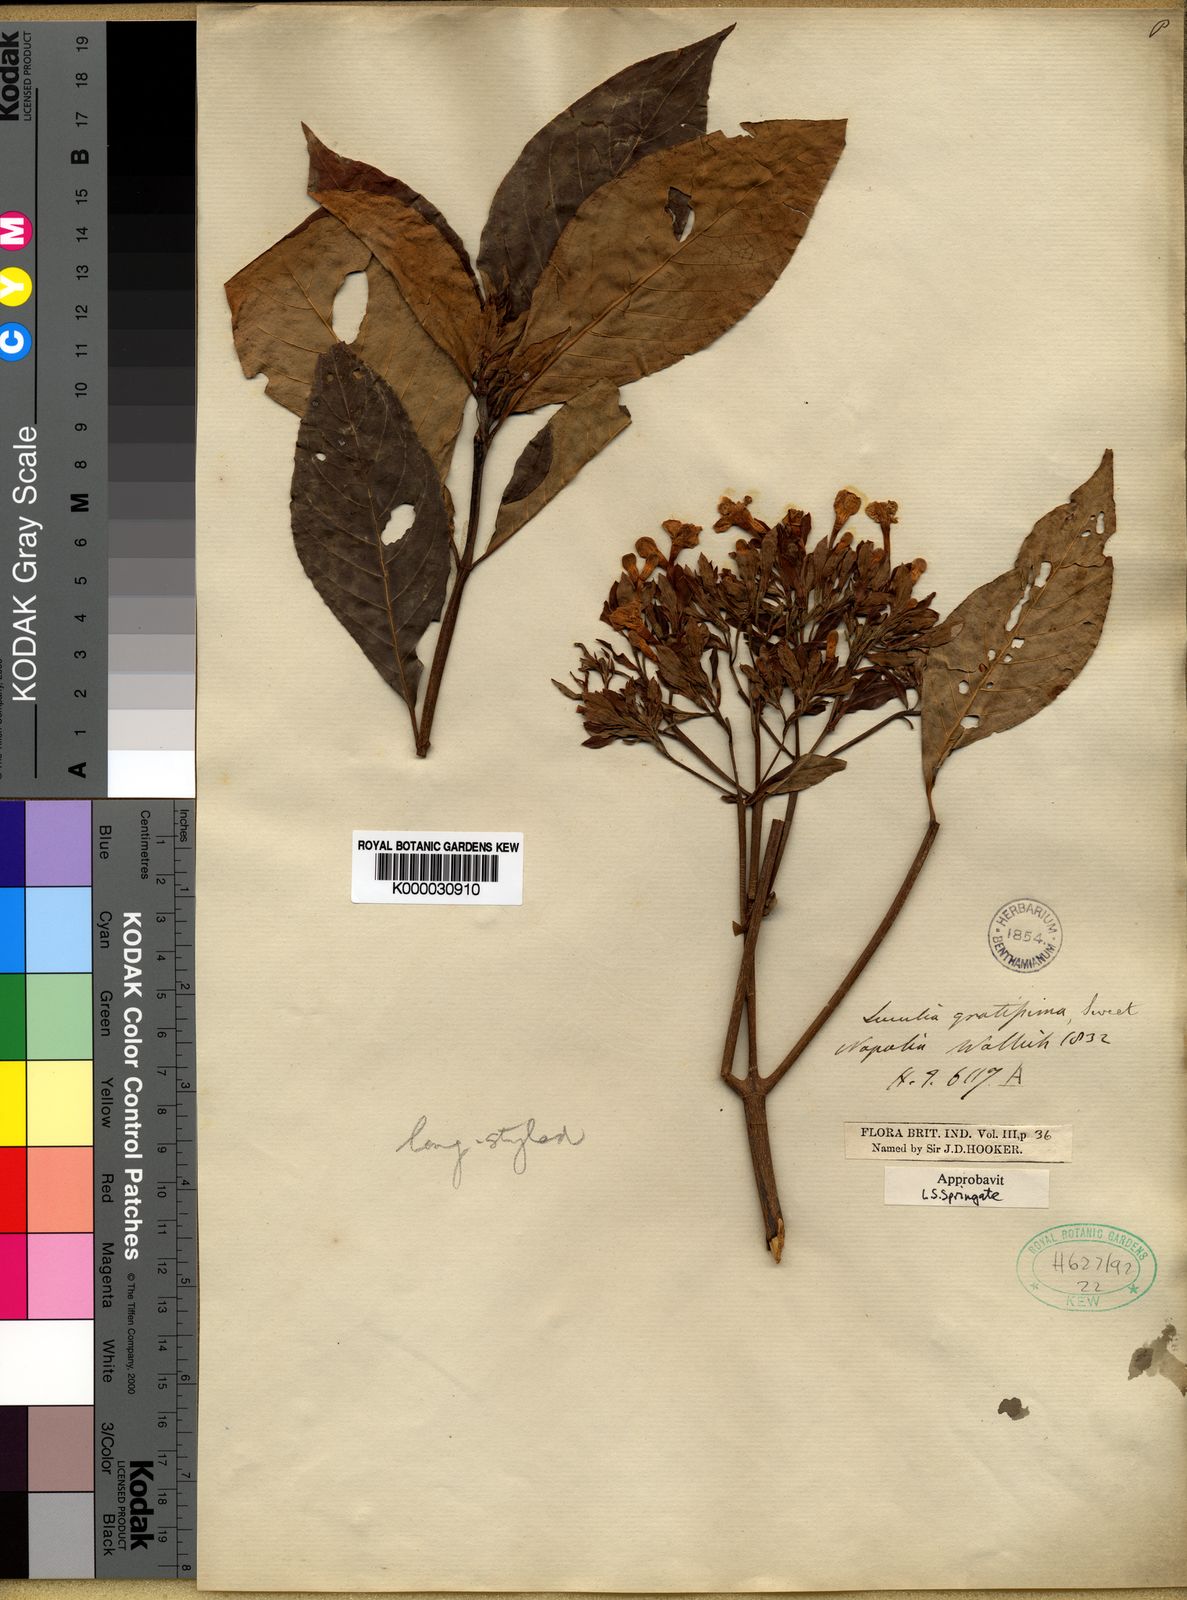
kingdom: Plantae
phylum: Tracheophyta
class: Magnoliopsida
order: Gentianales
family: Rubiaceae
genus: Luculia
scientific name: Luculia gratissima
